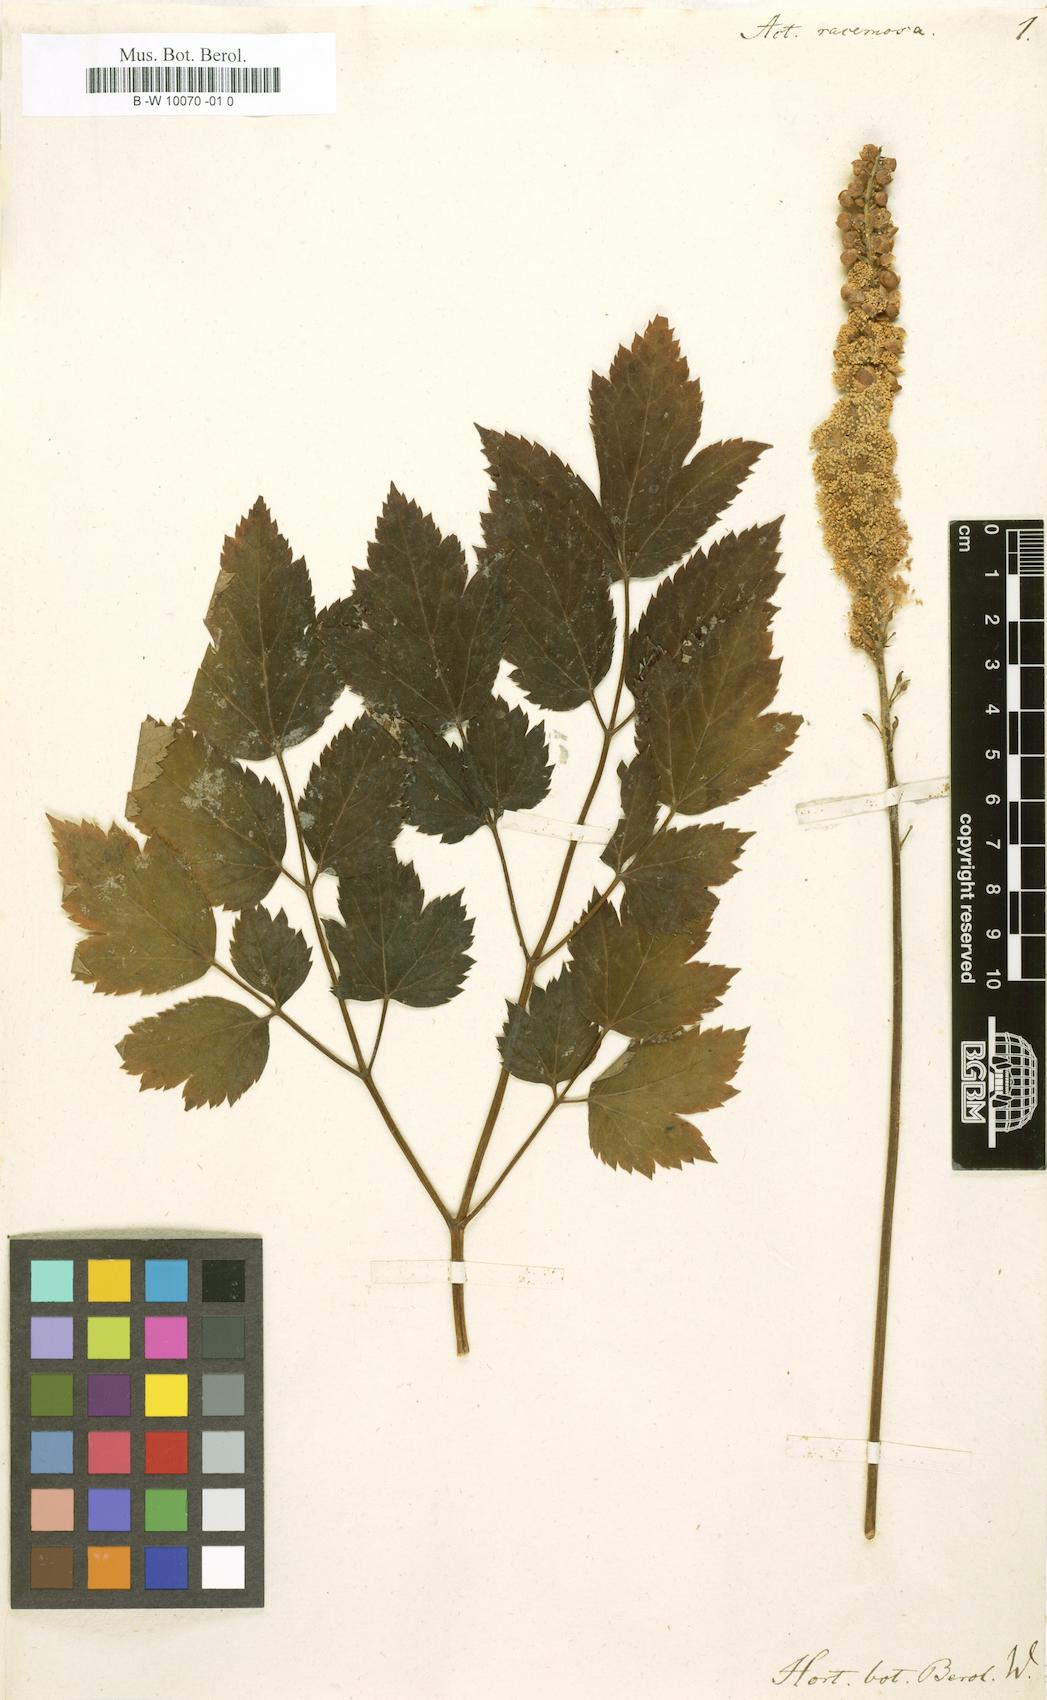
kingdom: Plantae
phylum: Tracheophyta
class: Magnoliopsida
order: Ranunculales
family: Ranunculaceae
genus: Actaea
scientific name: Actaea racemosa
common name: Black cohosh
